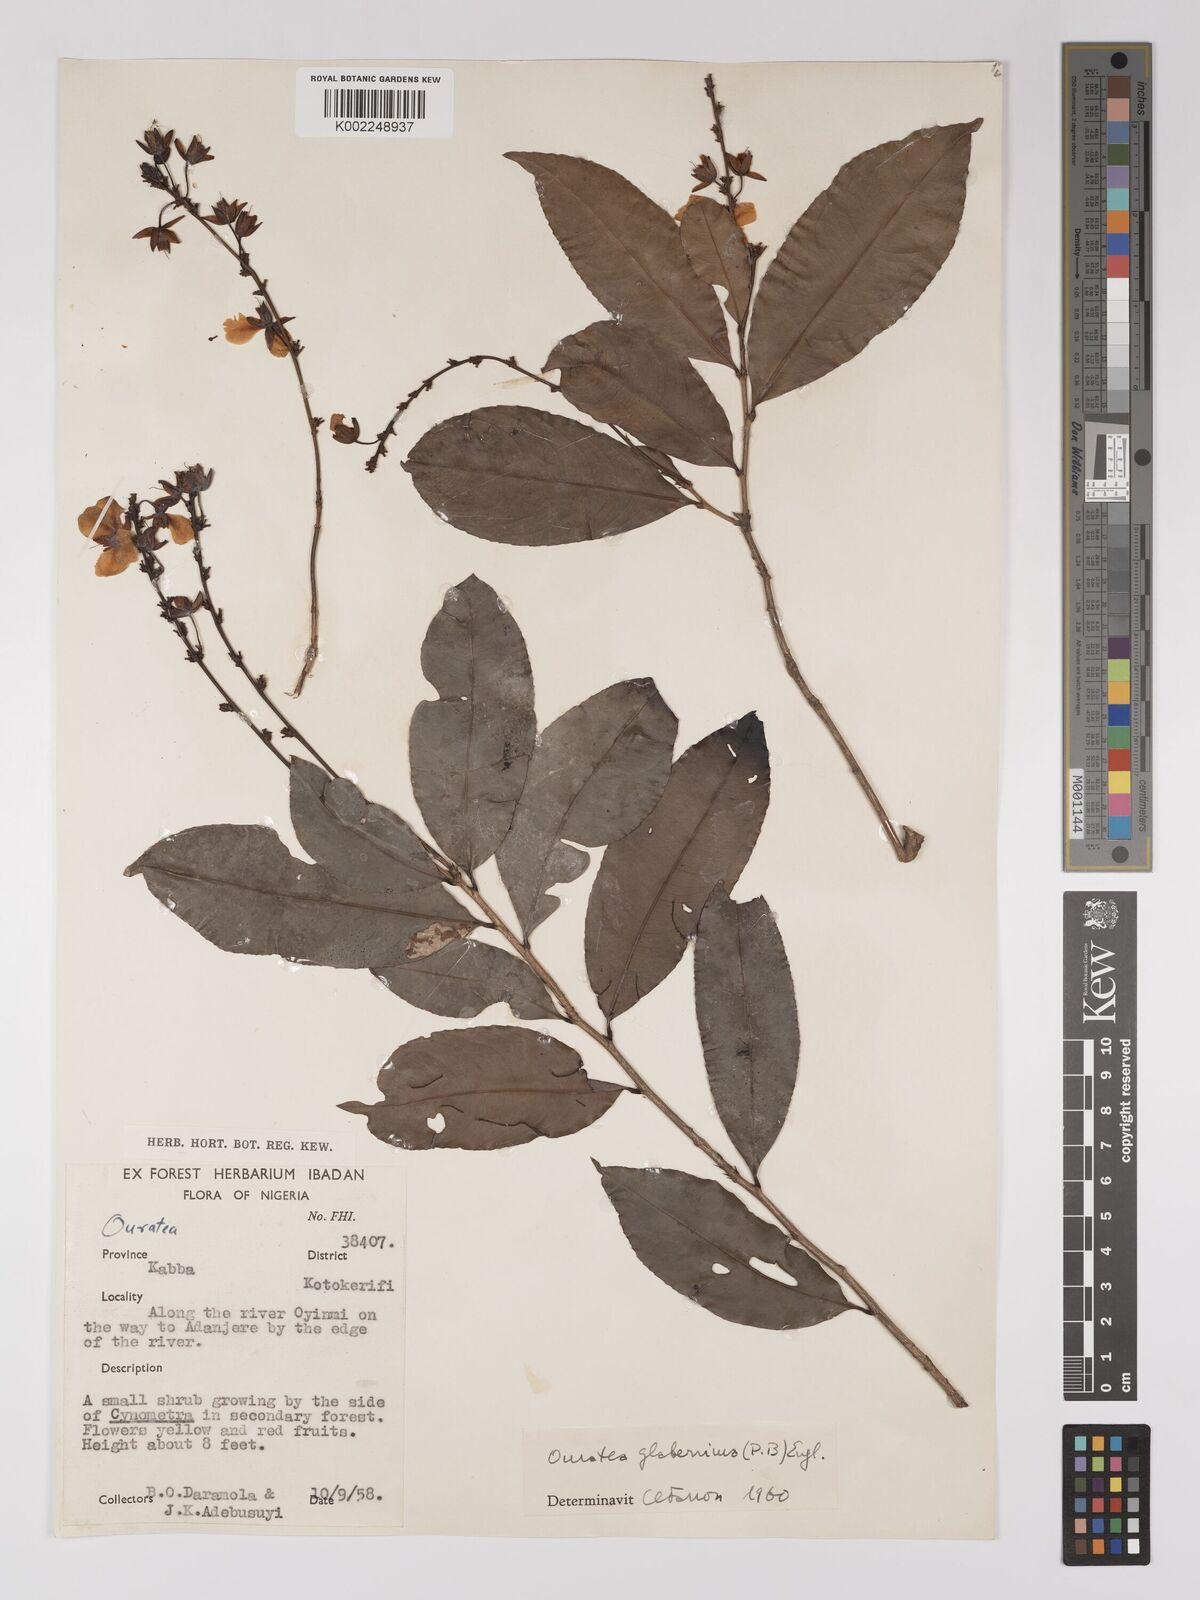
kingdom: Plantae
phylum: Tracheophyta
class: Magnoliopsida
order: Malpighiales
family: Ochnaceae
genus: Campylospermum
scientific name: Campylospermum glaberrimum
